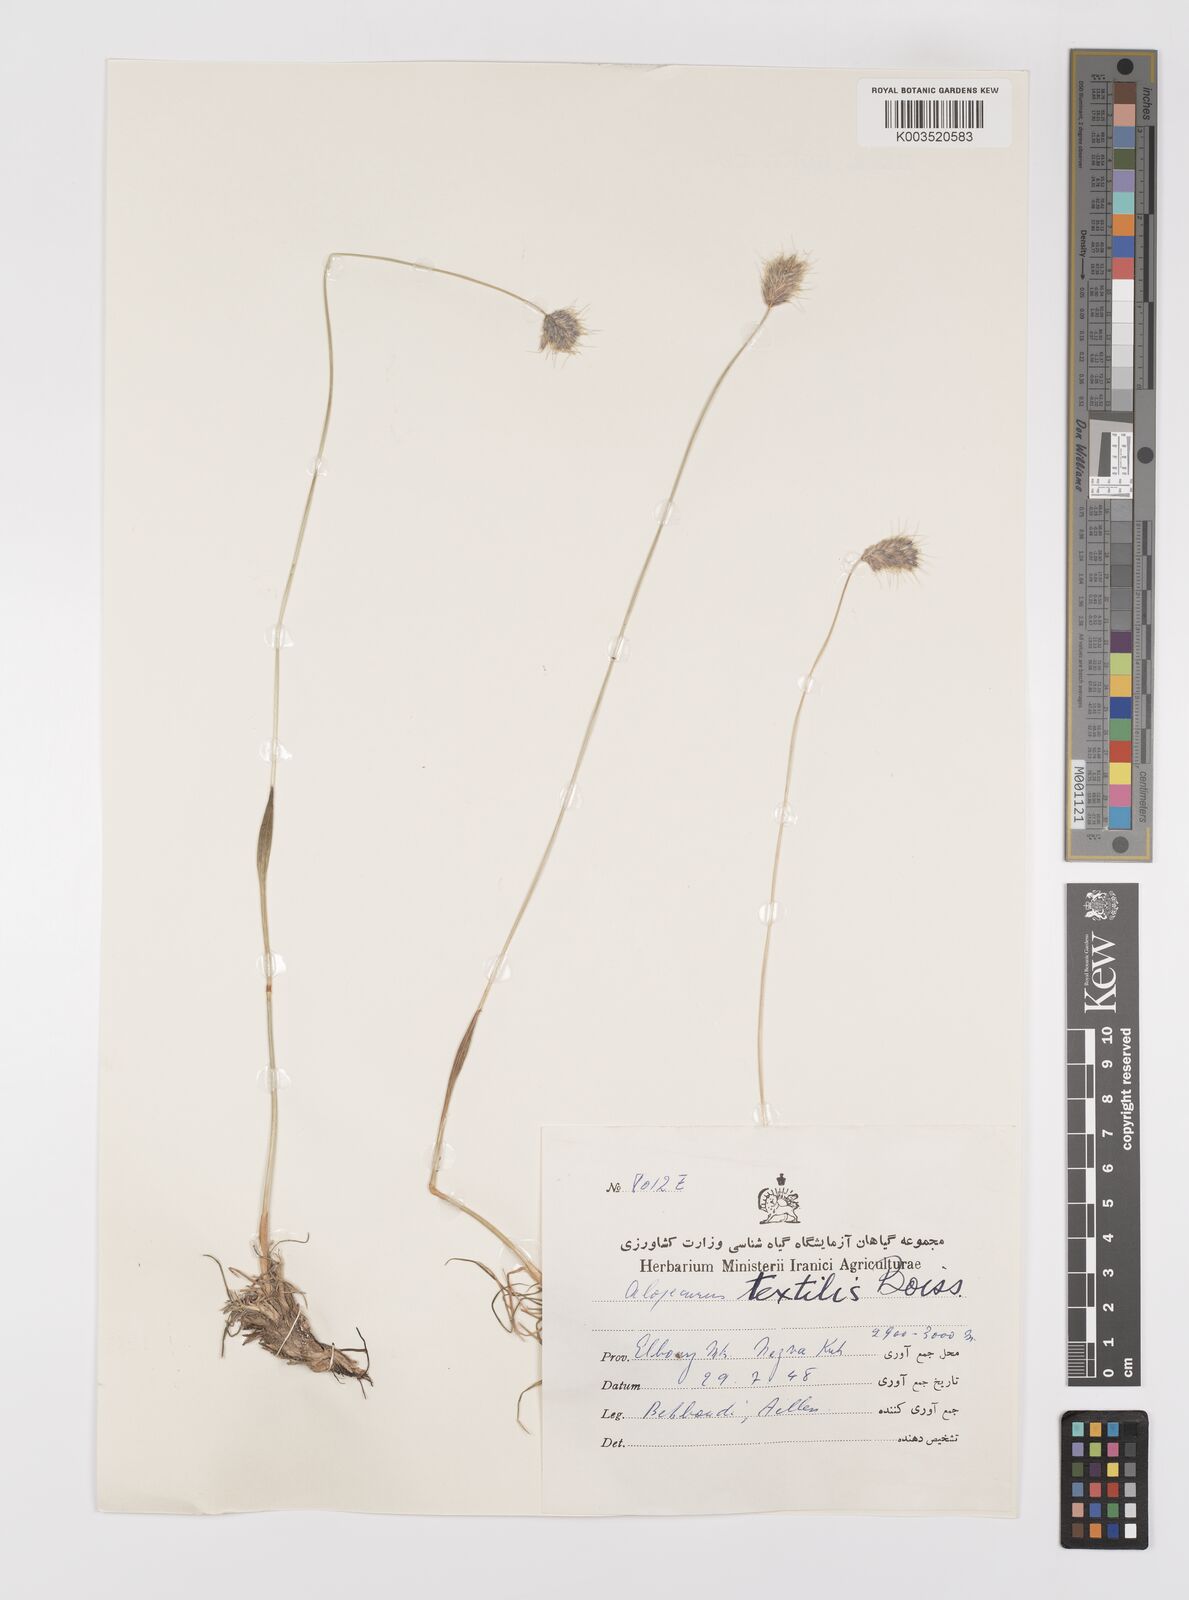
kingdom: Plantae
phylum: Tracheophyta
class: Liliopsida
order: Poales
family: Poaceae
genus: Alopecurus
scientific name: Alopecurus textilis
